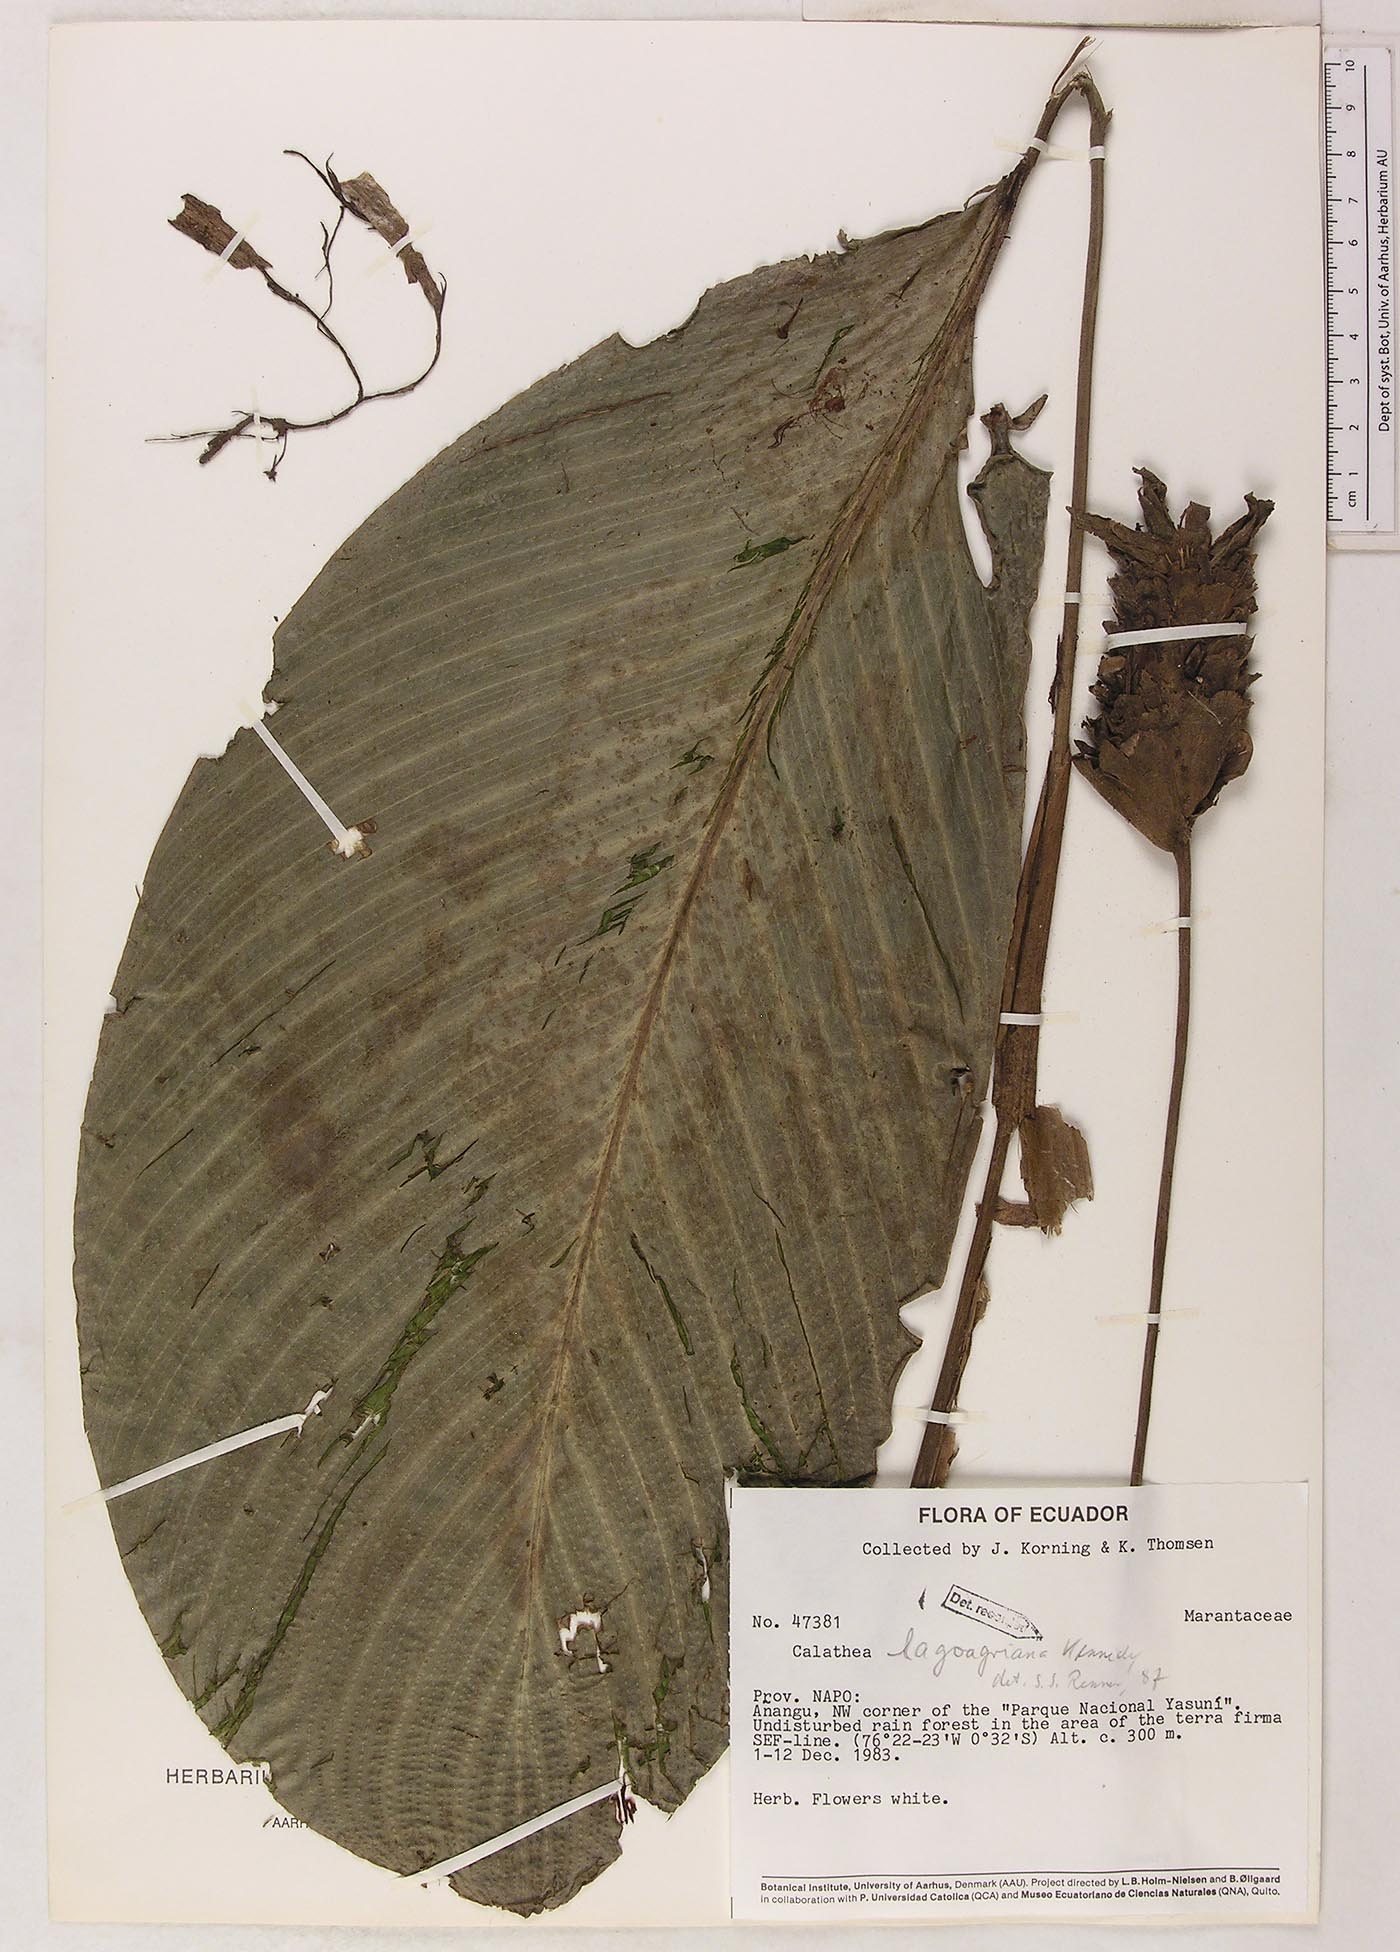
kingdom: Plantae
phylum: Tracheophyta
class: Liliopsida
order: Zingiberales
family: Marantaceae
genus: Goeppertia
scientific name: Goeppertia lagoagriana
